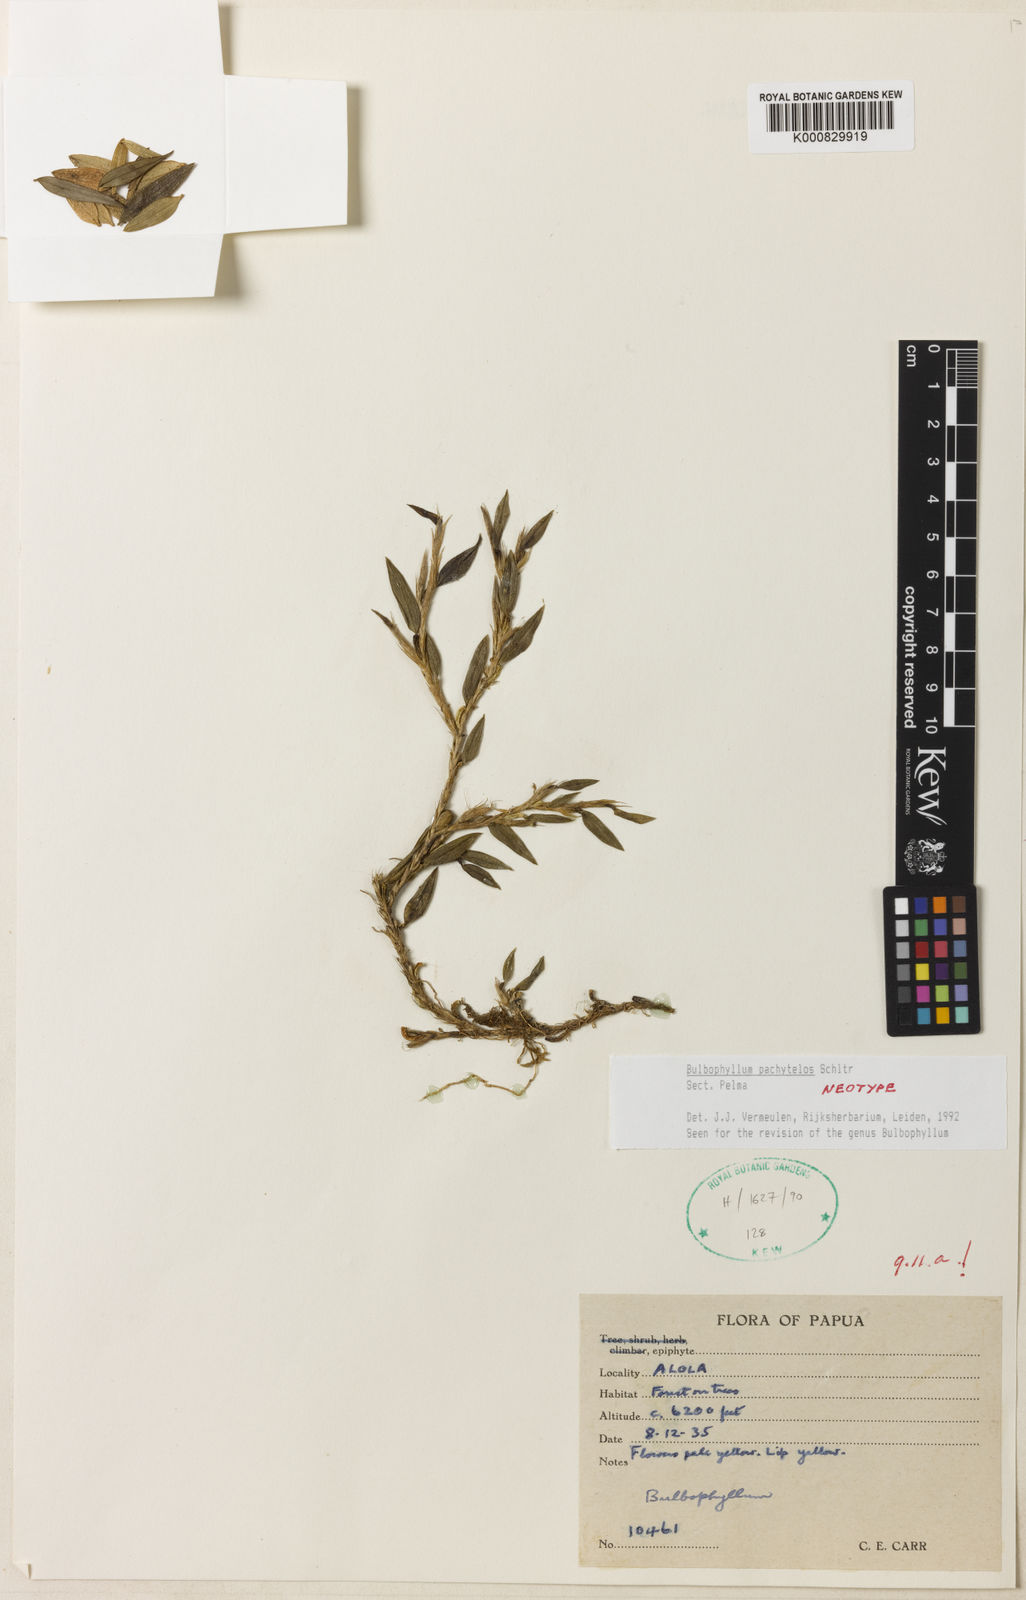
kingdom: Plantae
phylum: Tracheophyta
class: Liliopsida
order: Asparagales
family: Orchidaceae
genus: Bulbophyllum
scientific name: Bulbophyllum
